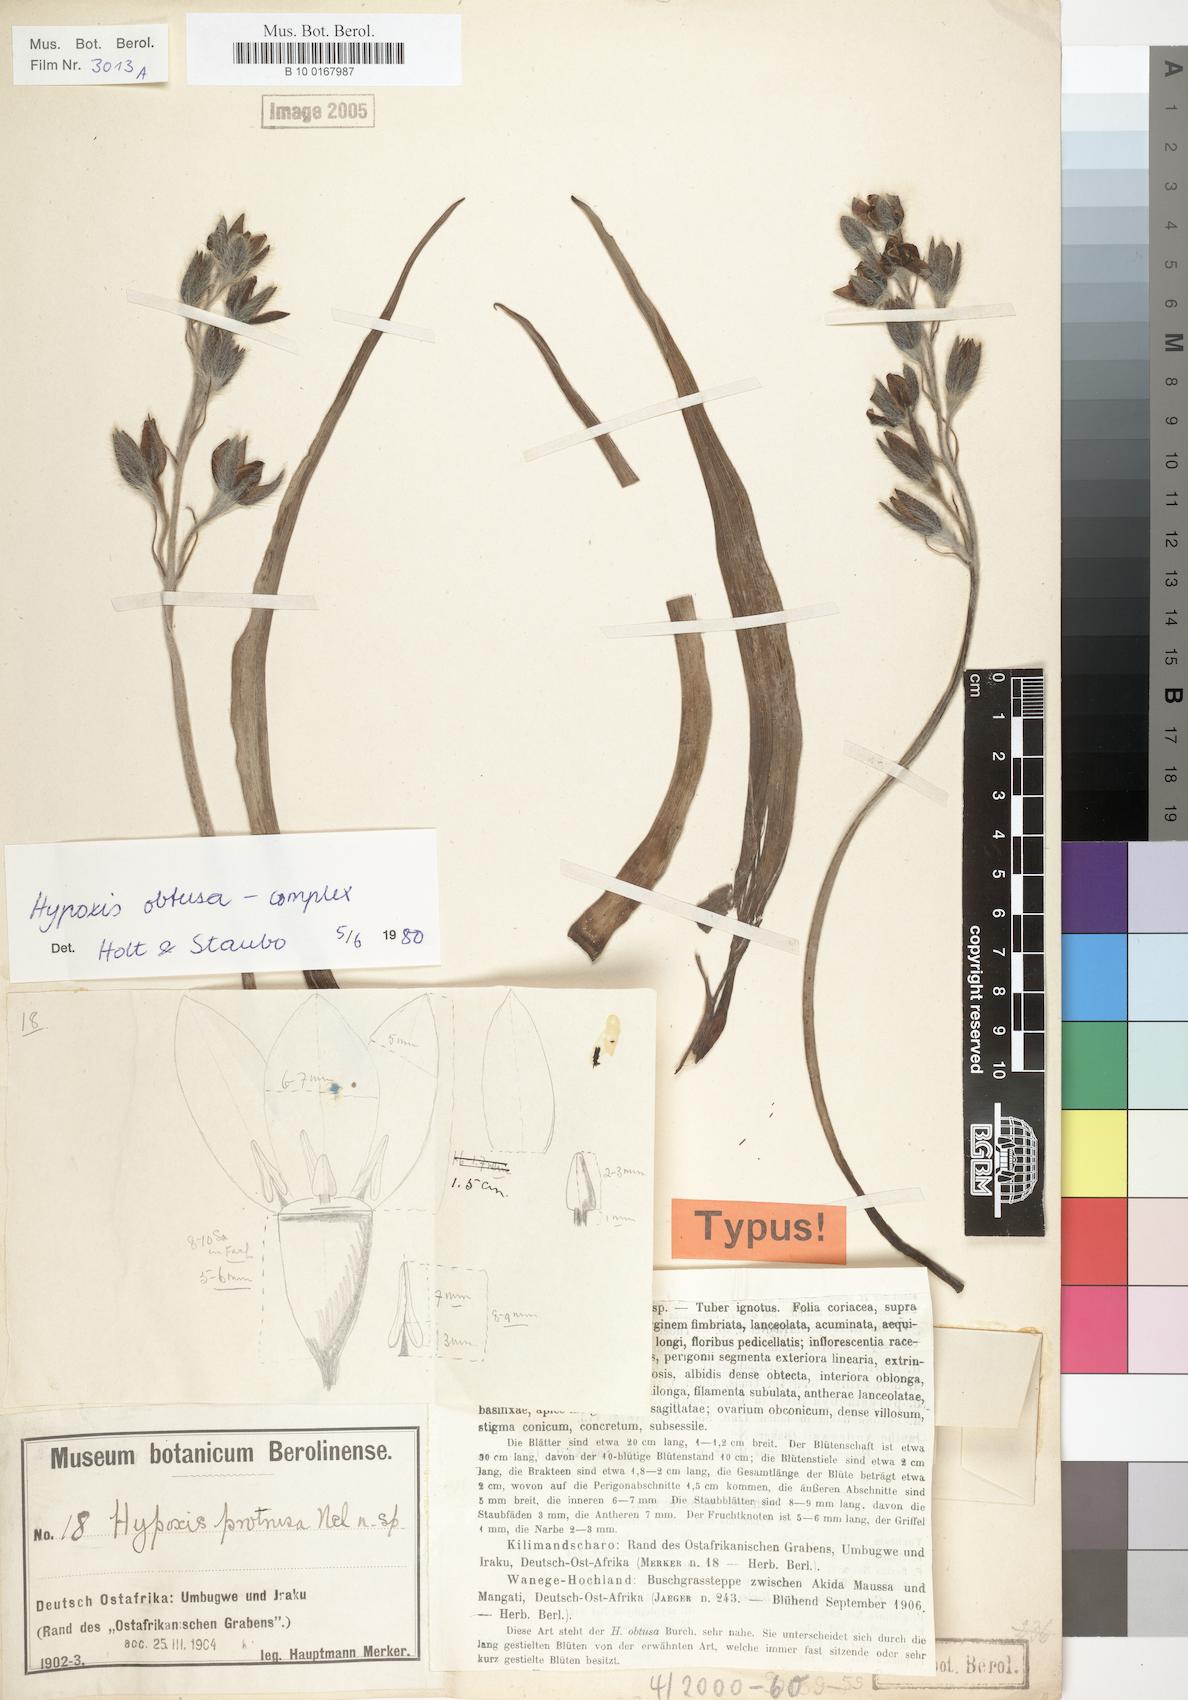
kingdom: Plantae
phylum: Tracheophyta
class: Liliopsida
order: Asparagales
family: Hypoxidaceae
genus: Hypoxis
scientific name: Hypoxis
